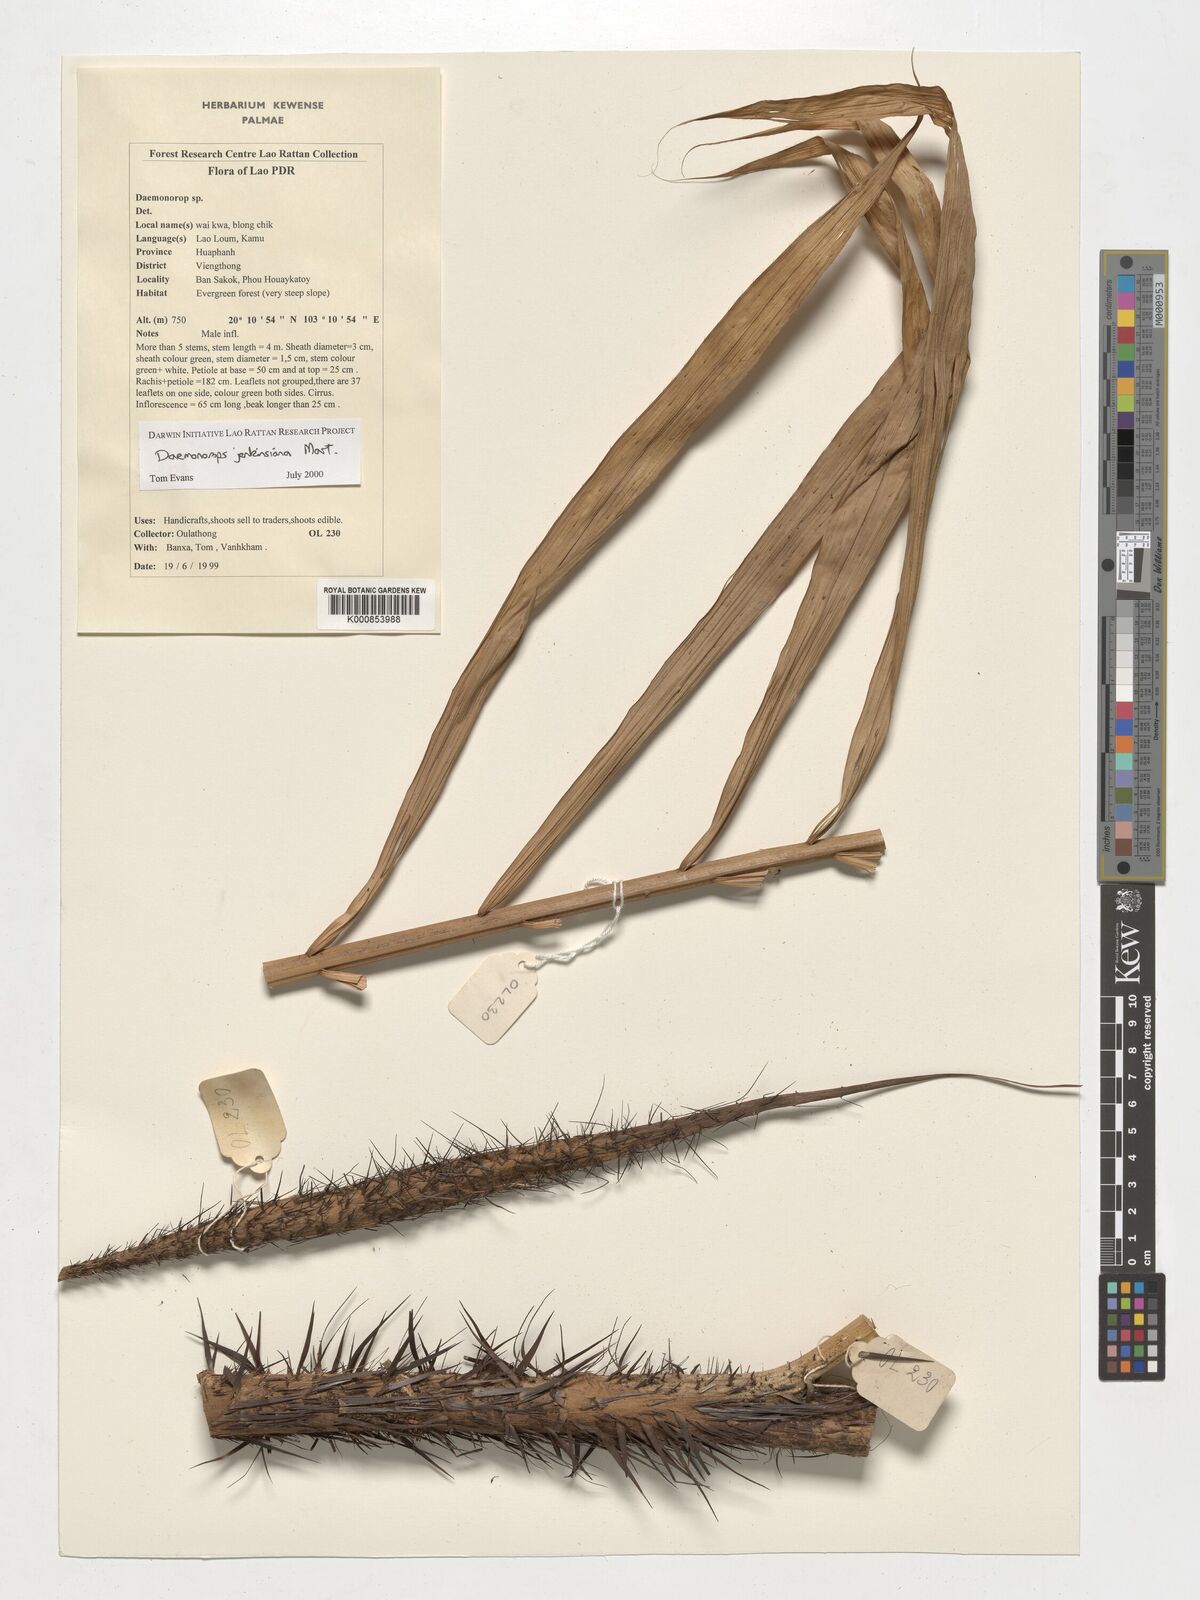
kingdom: Plantae
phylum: Tracheophyta
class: Liliopsida
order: Arecales
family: Arecaceae
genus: Calamus
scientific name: Calamus melanochaetes
